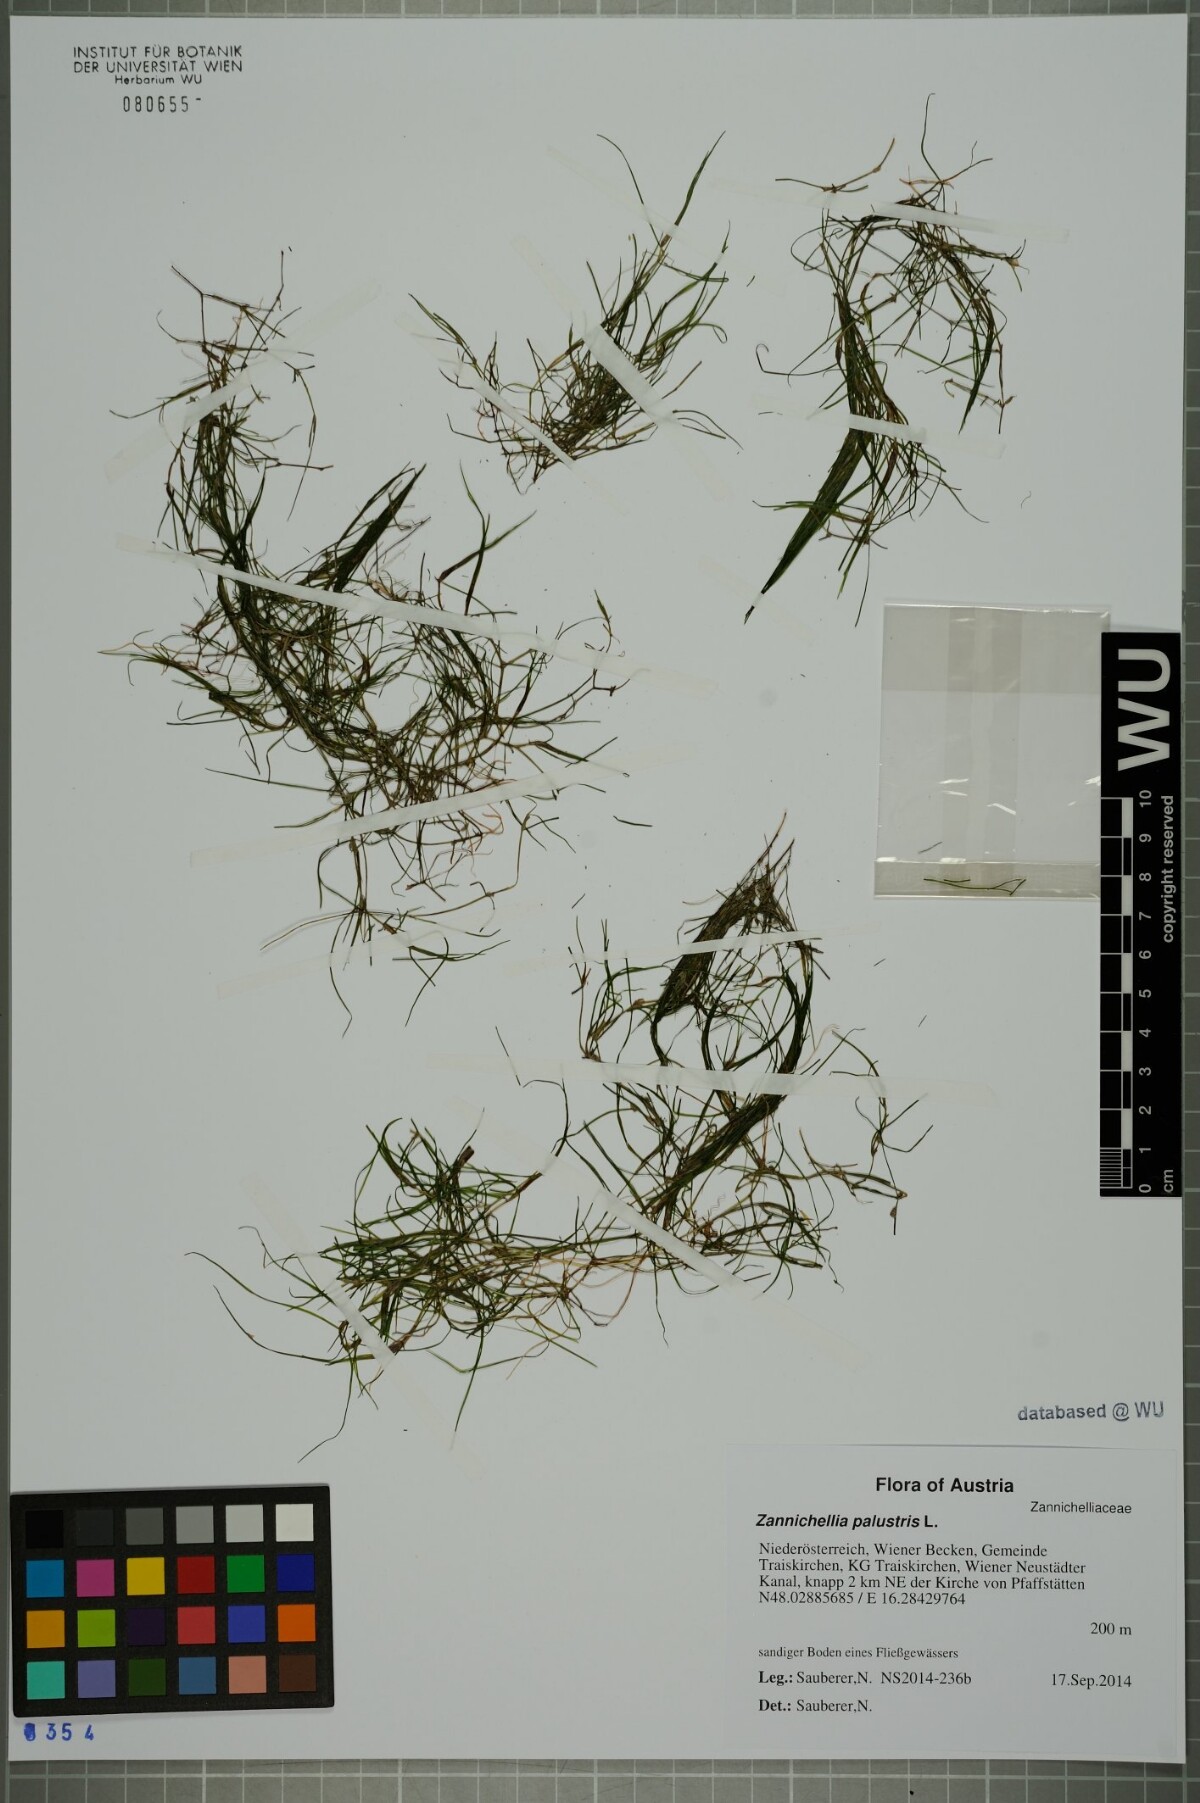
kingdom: Plantae
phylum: Tracheophyta
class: Liliopsida
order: Alismatales
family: Potamogetonaceae
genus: Zannichellia
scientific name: Zannichellia palustris
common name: Horned pondweed
